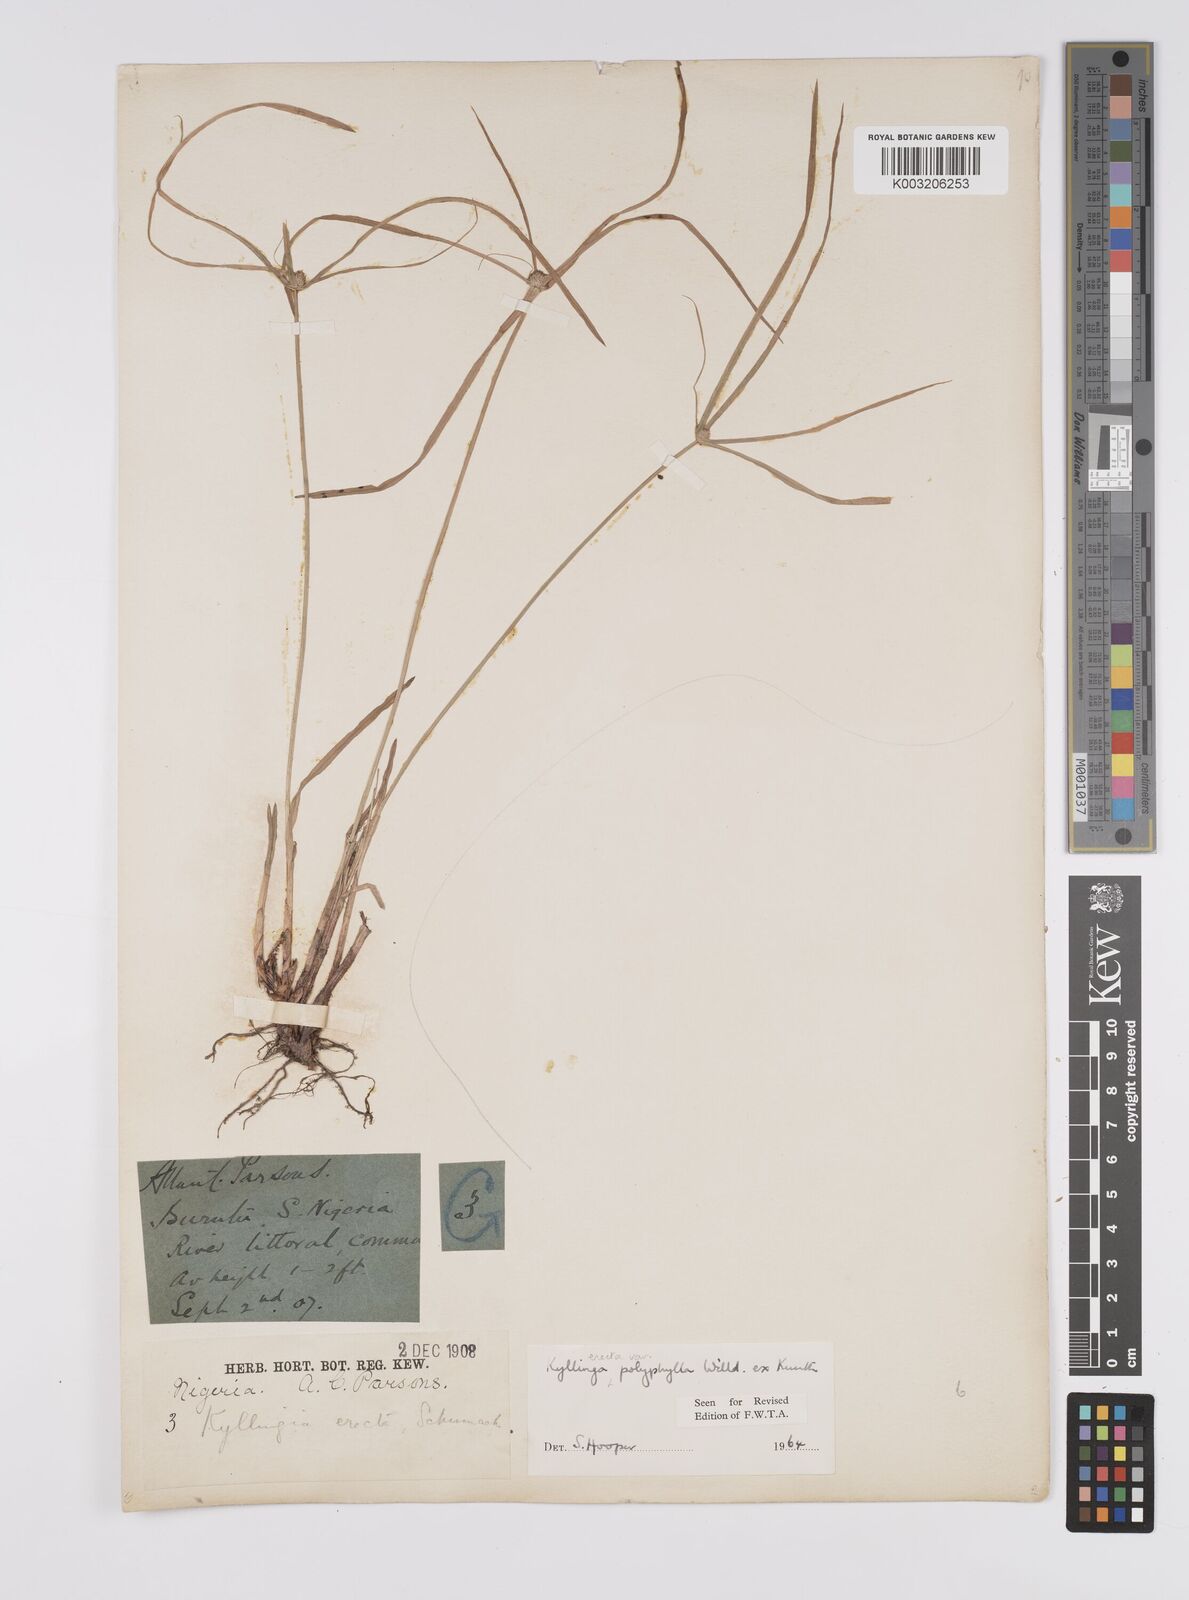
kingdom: Plantae
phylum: Tracheophyta
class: Liliopsida
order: Poales
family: Cyperaceae
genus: Cyperus
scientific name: Cyperus
